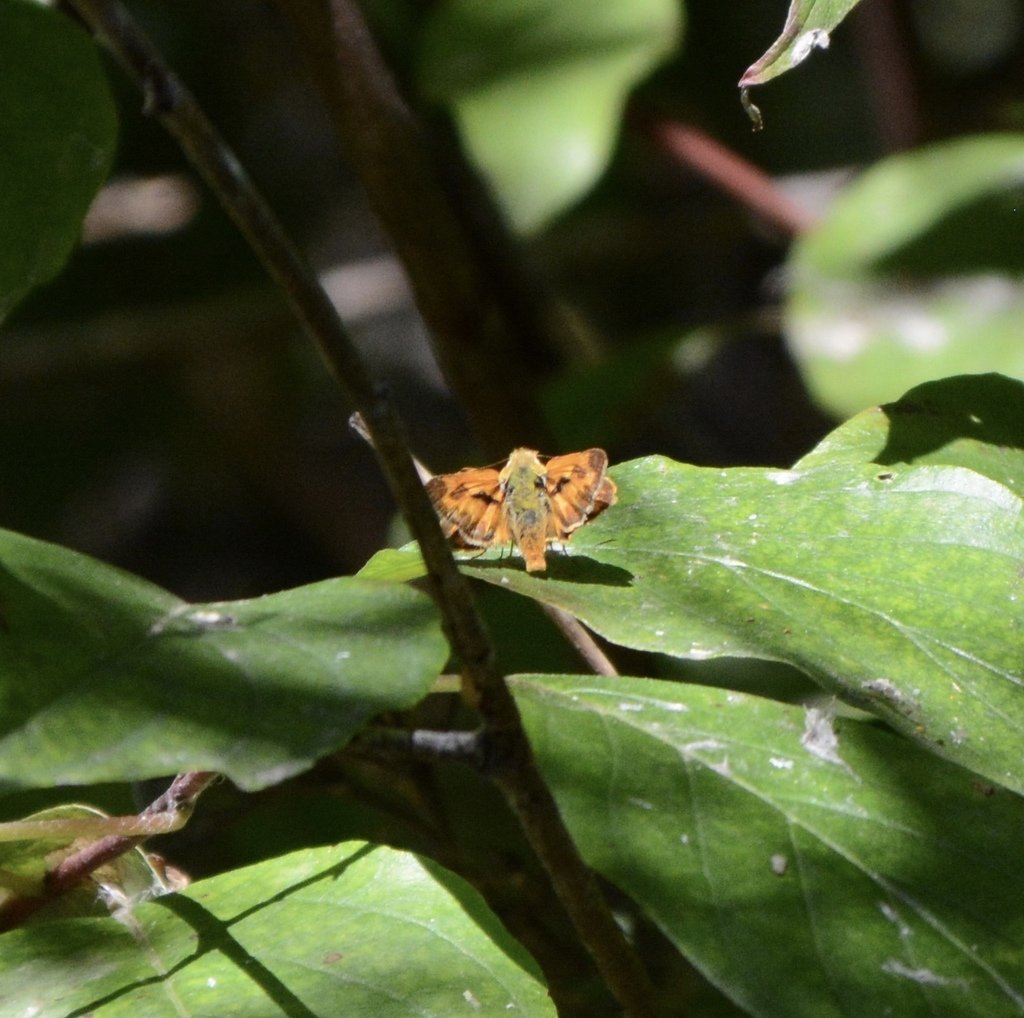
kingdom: Animalia
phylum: Arthropoda
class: Insecta
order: Lepidoptera
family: Hesperiidae
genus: Ochlodes
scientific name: Ochlodes sylvanoides
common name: Woodland Skipper
